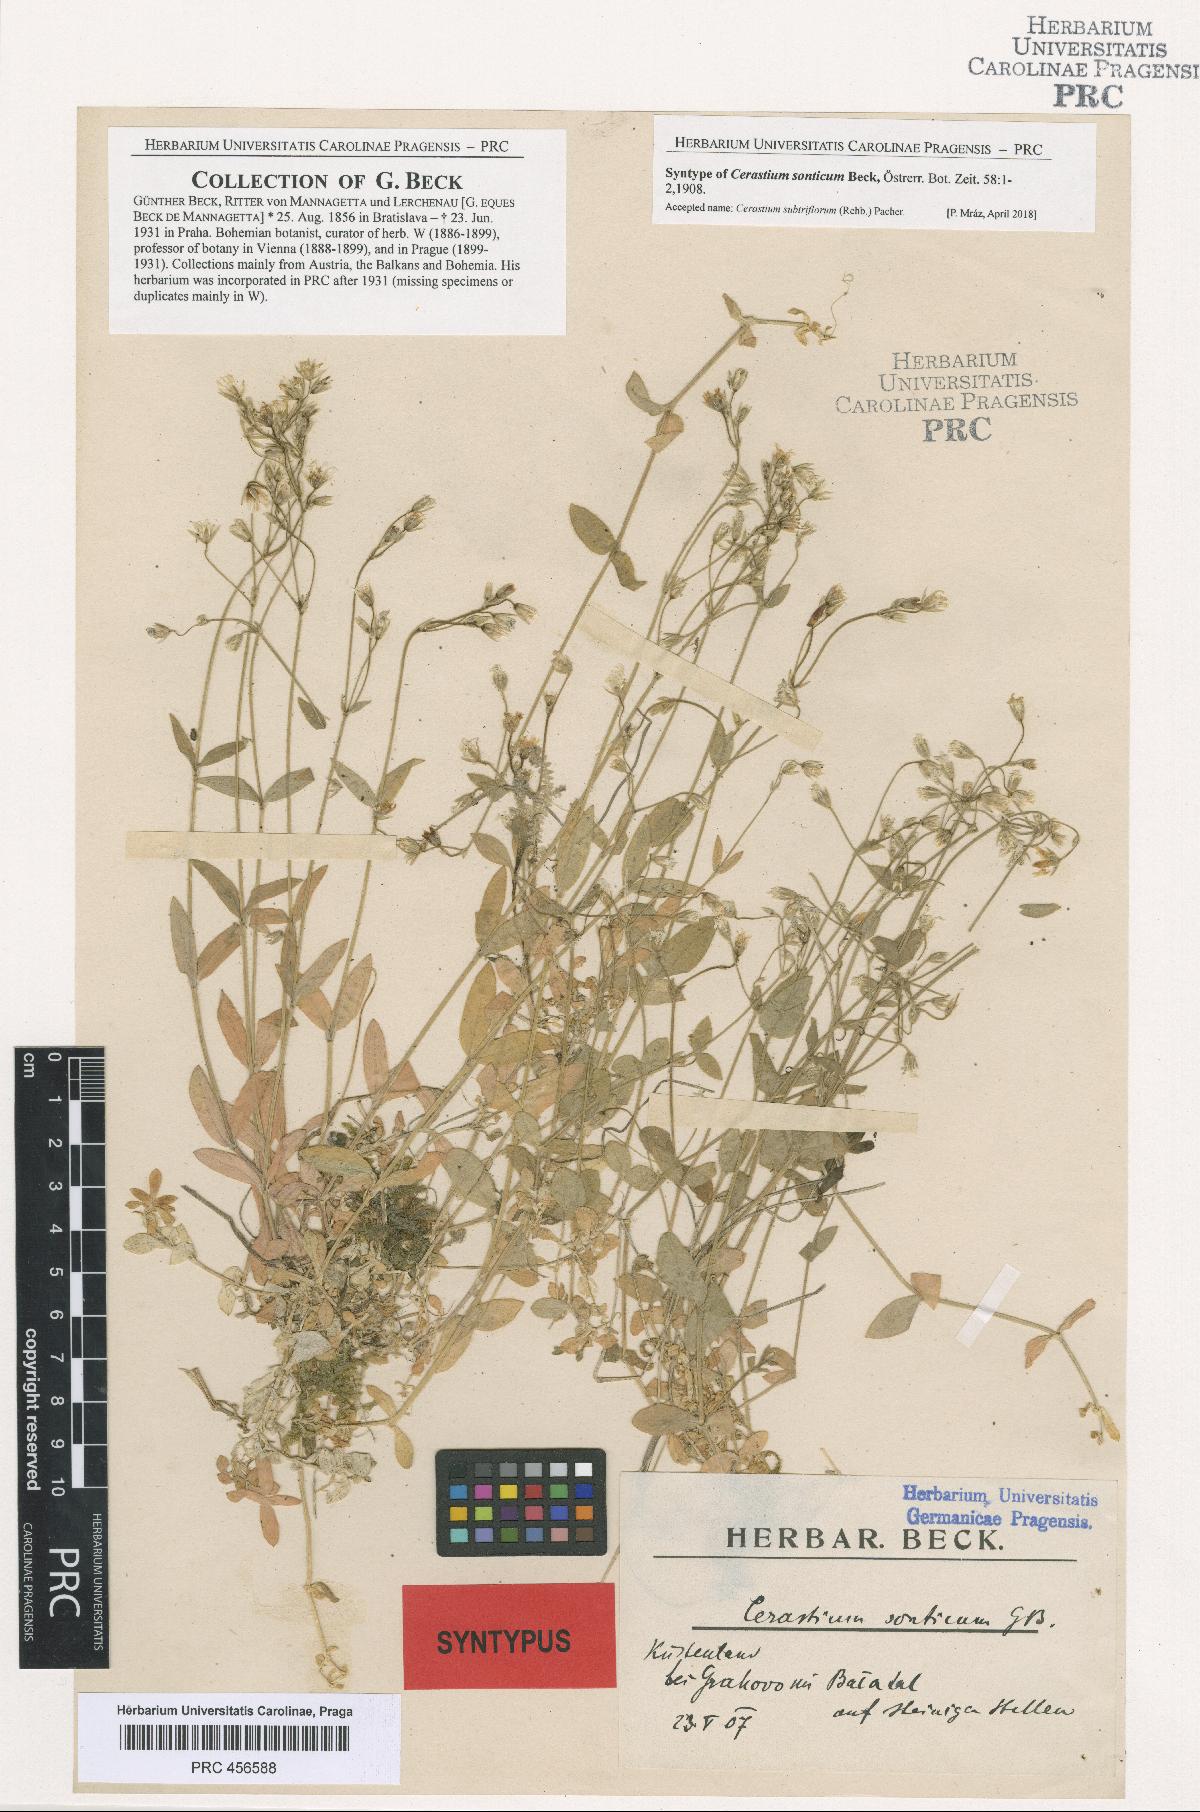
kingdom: Plantae
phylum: Tracheophyta
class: Magnoliopsida
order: Caryophyllales
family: Caryophyllaceae
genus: Cerastium
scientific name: Cerastium subtriflorum
